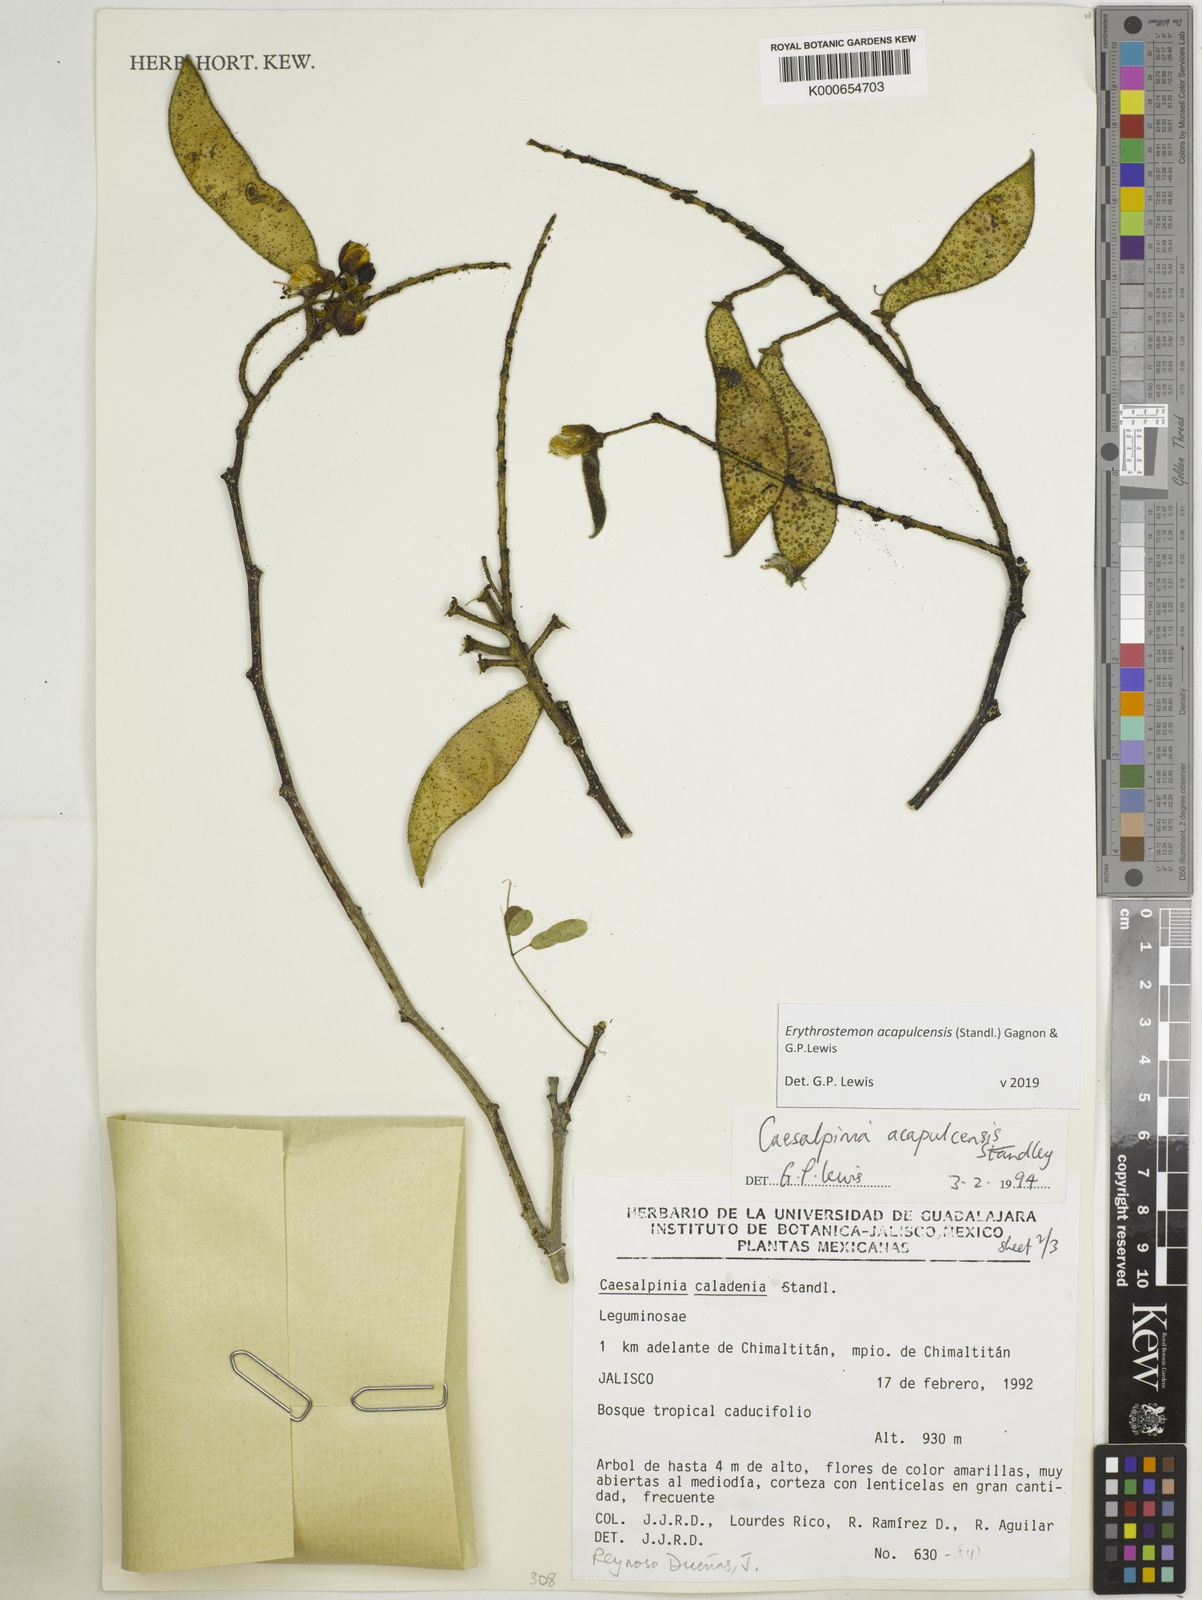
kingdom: Plantae
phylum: Tracheophyta
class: Magnoliopsida
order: Fabales
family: Fabaceae
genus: Erythrostemon
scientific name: Erythrostemon acapulcensis
